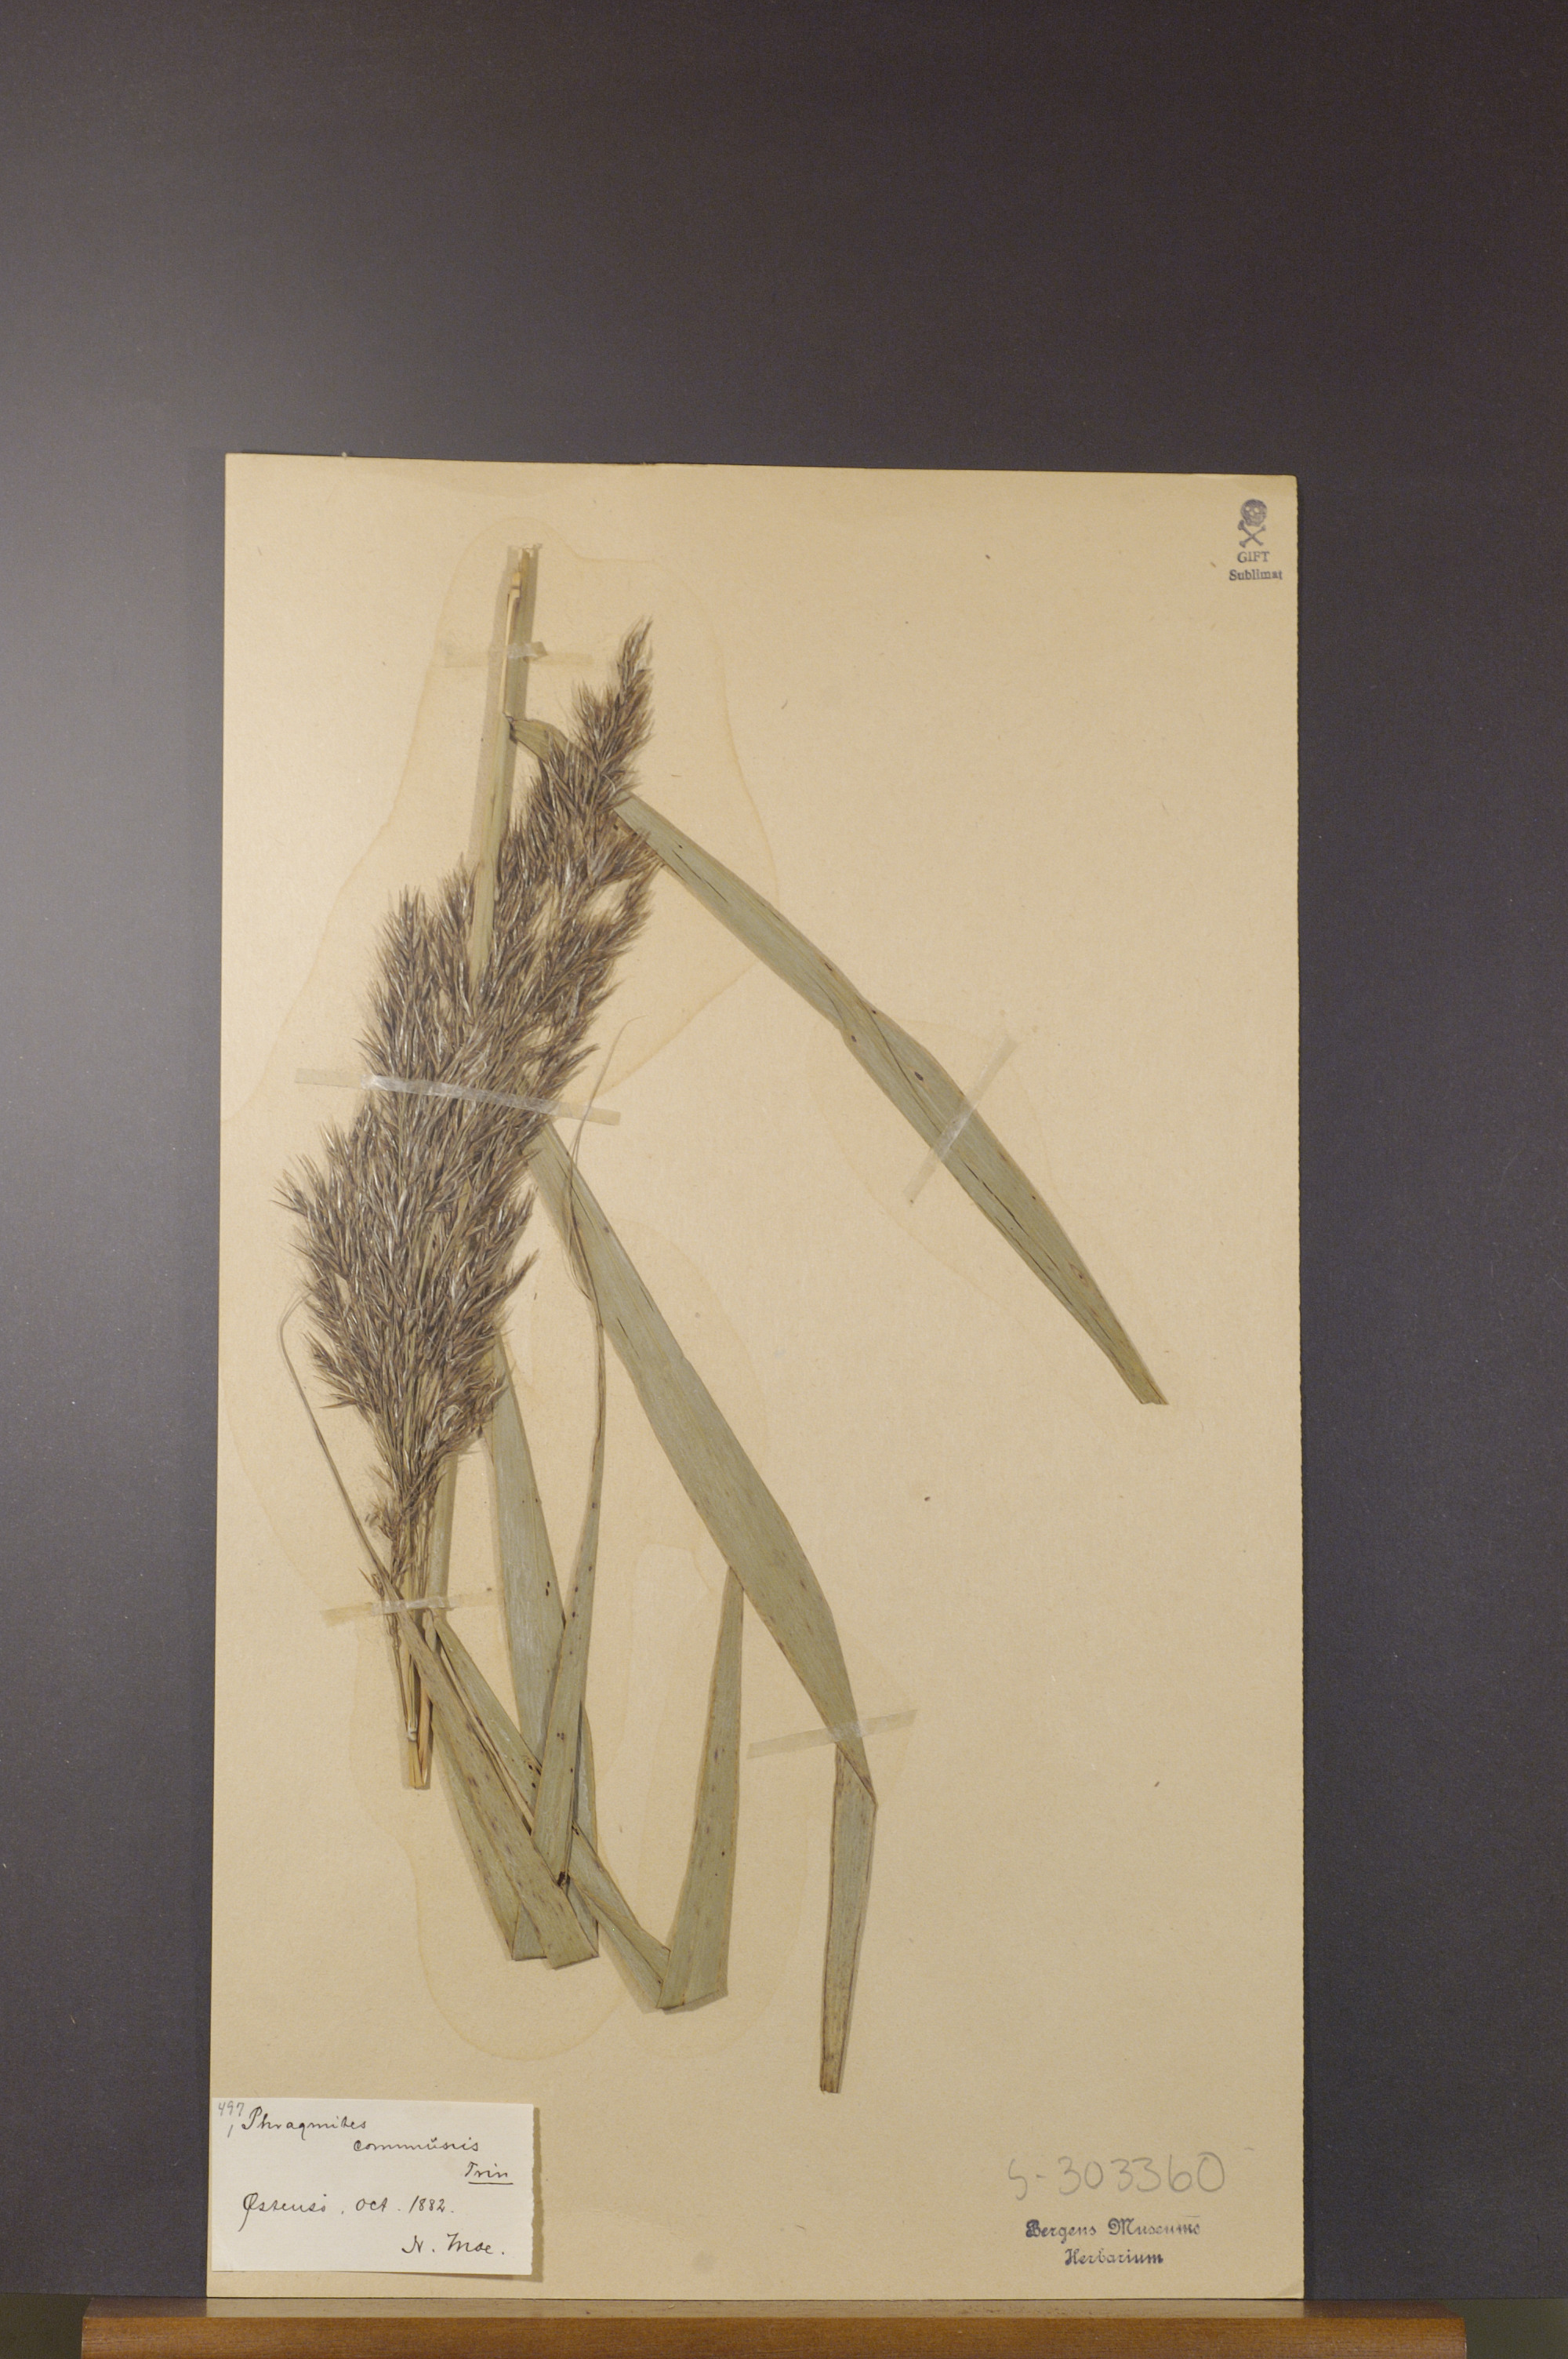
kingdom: Plantae
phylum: Tracheophyta
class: Liliopsida
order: Poales
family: Poaceae
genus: Phragmites
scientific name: Phragmites australis
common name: Common reed
